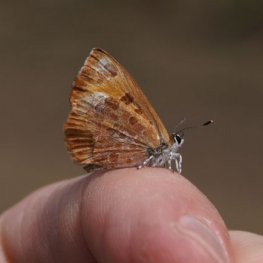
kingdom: Animalia
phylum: Arthropoda
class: Insecta
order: Lepidoptera
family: Lycaenidae
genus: Feniseca
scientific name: Feniseca tarquinius
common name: Harvester
